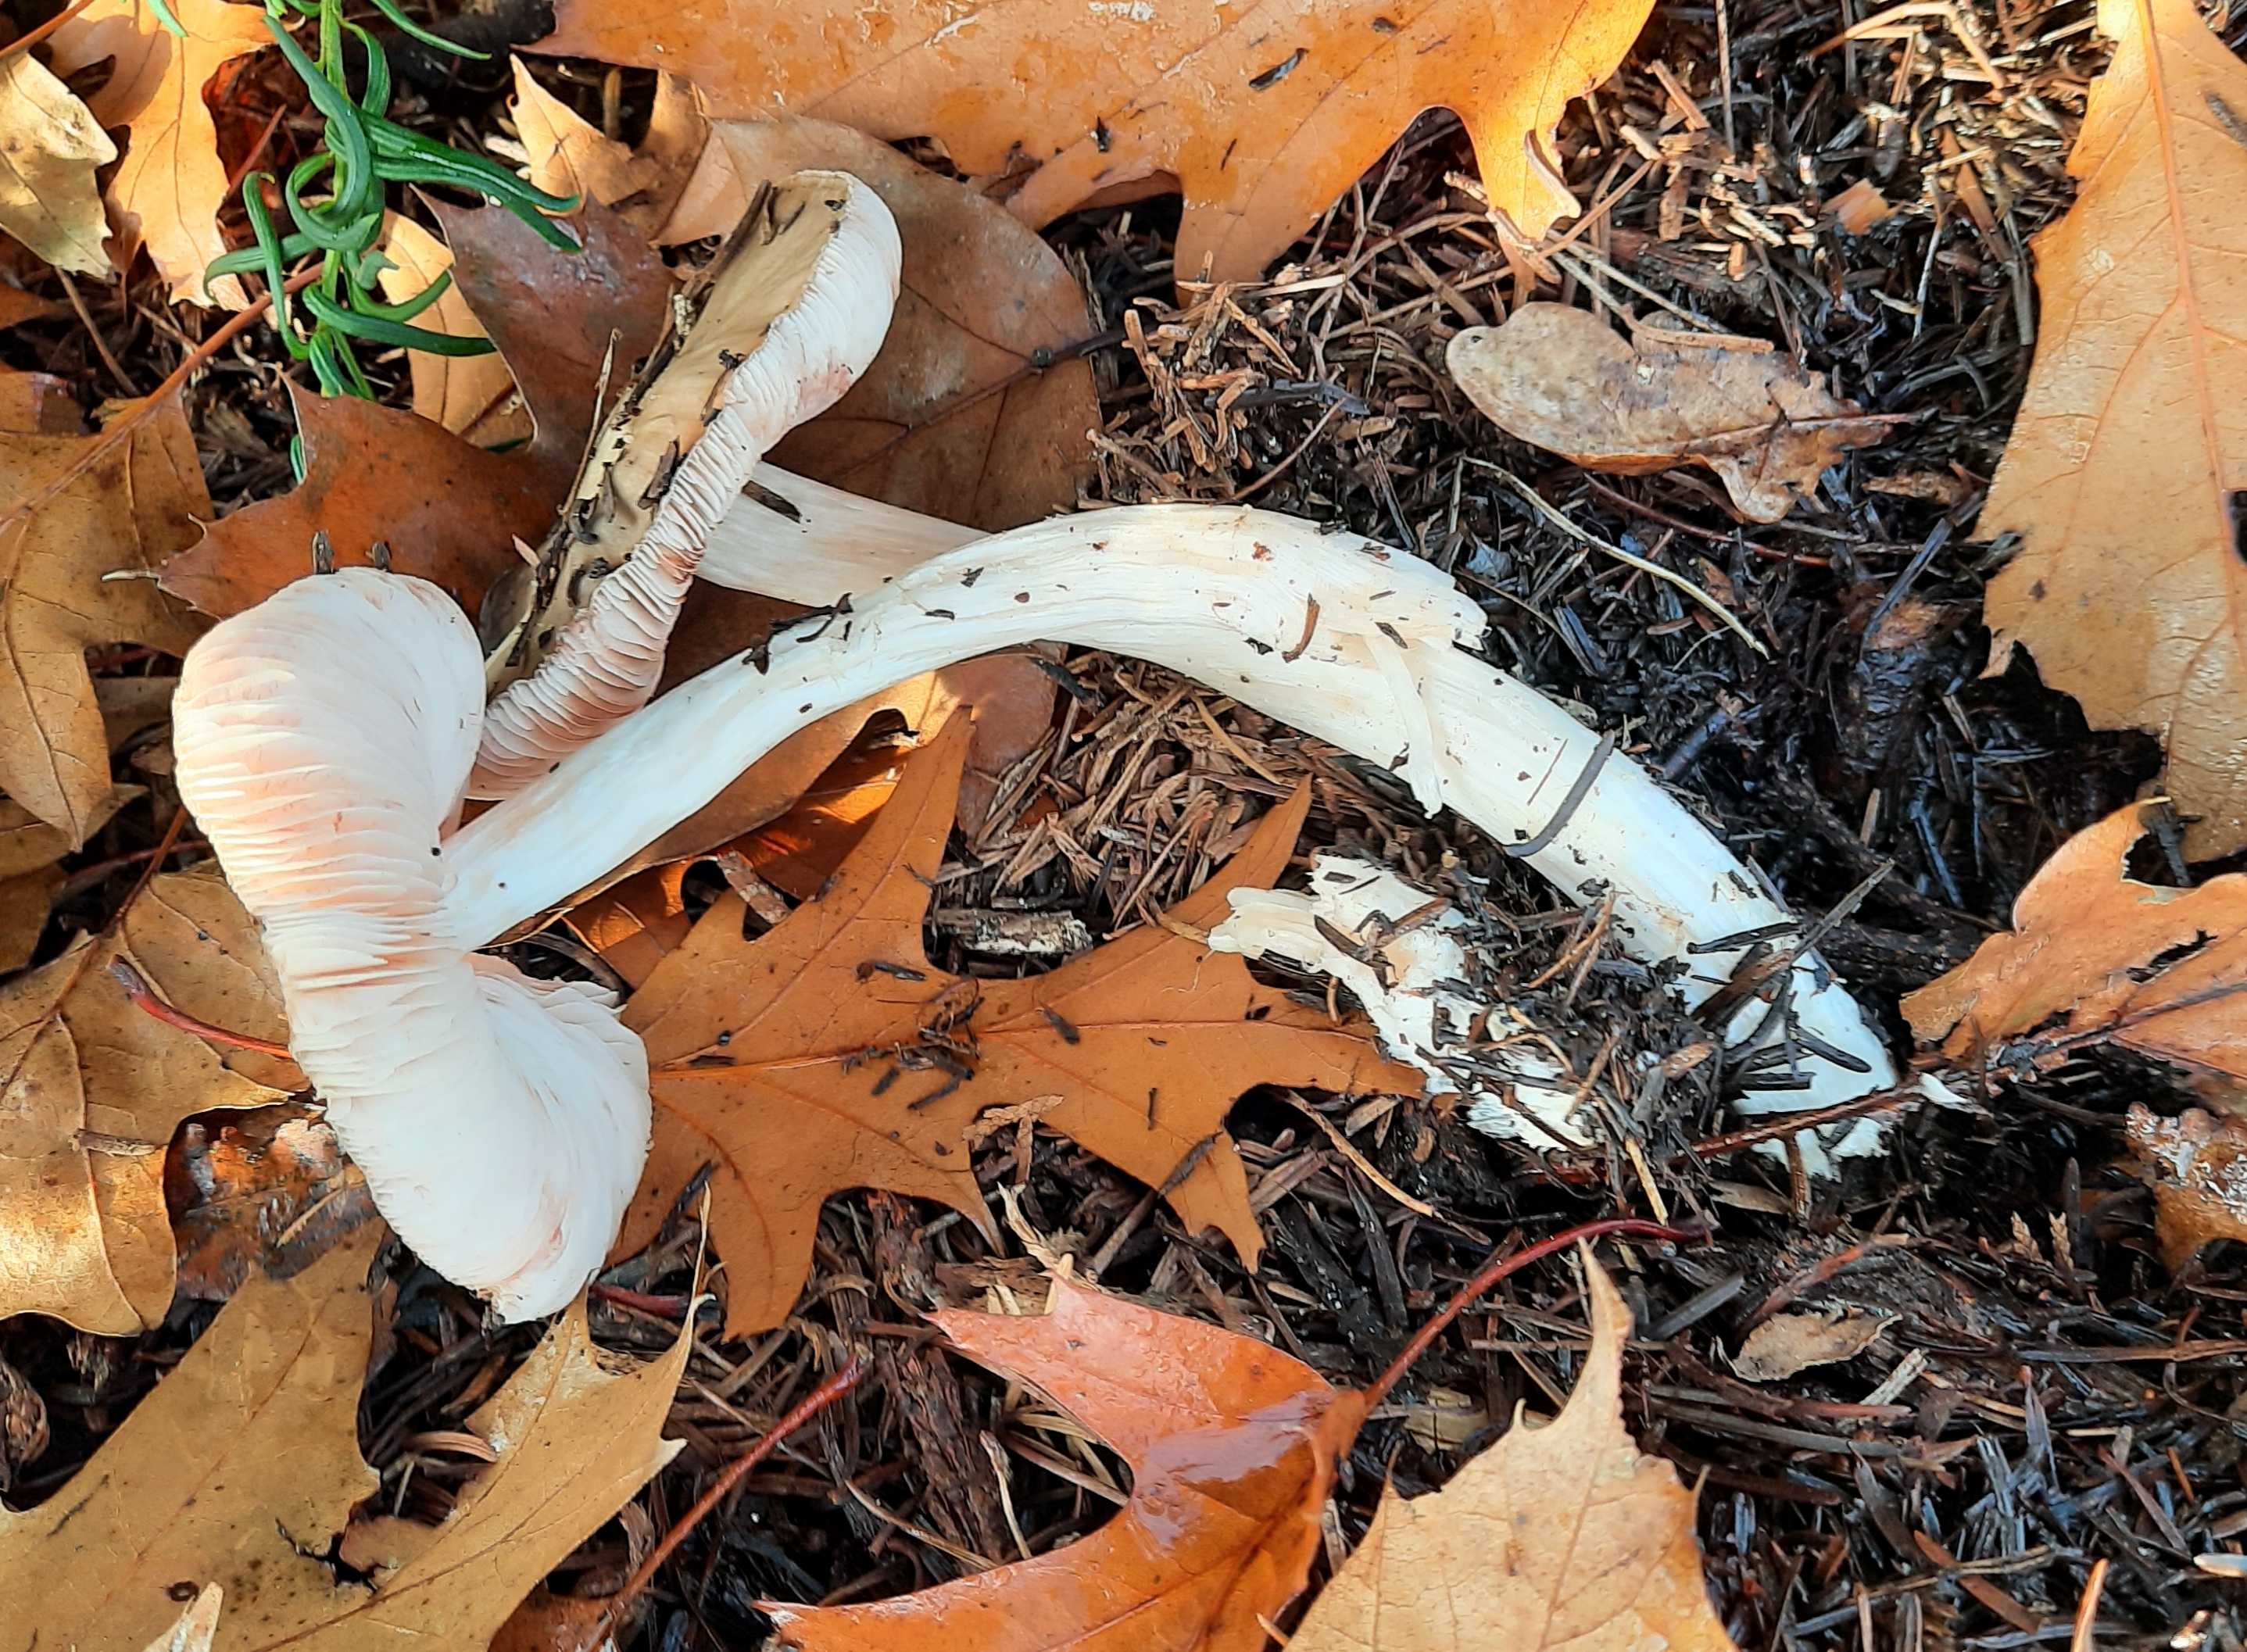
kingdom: Fungi
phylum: Basidiomycota
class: Agaricomycetes
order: Agaricales
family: Pluteaceae
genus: Volvopluteus
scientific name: Volvopluteus gloiocephalus
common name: høj posesvamp
